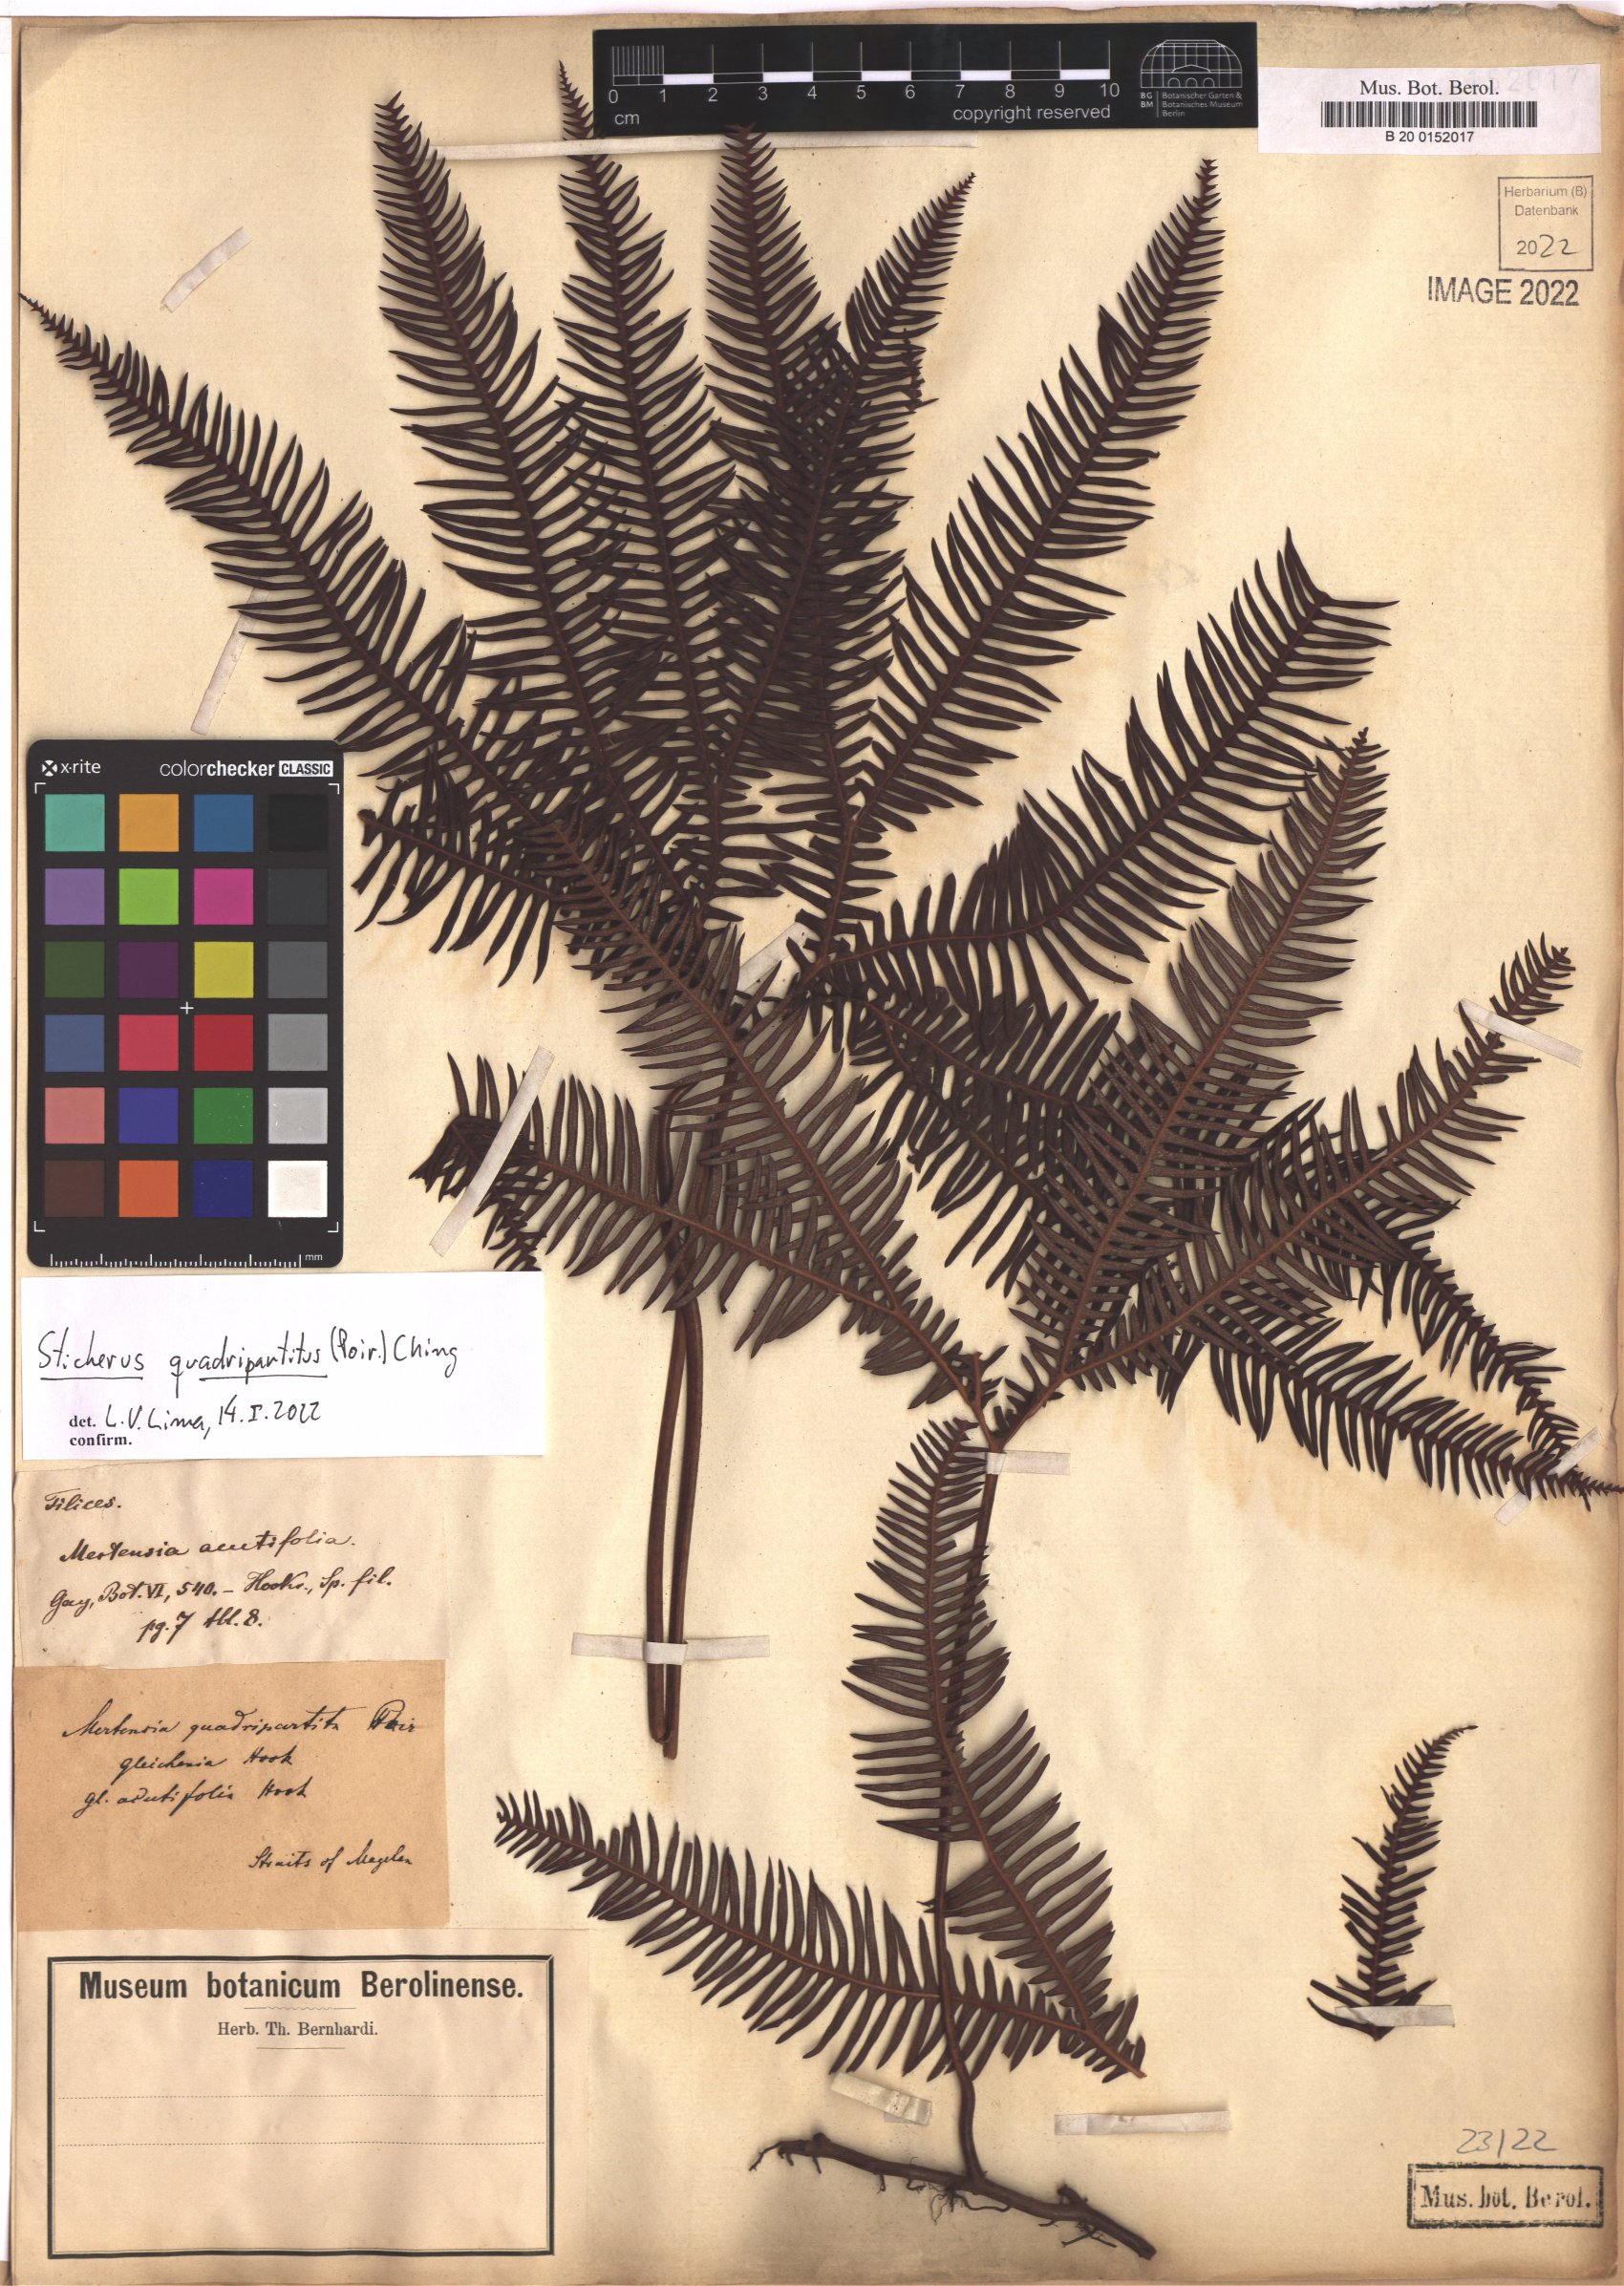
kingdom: Plantae
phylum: Tracheophyta
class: Polypodiopsida
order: Gleicheniales
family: Gleicheniaceae
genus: Sticherus
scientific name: Sticherus quadripartitus
